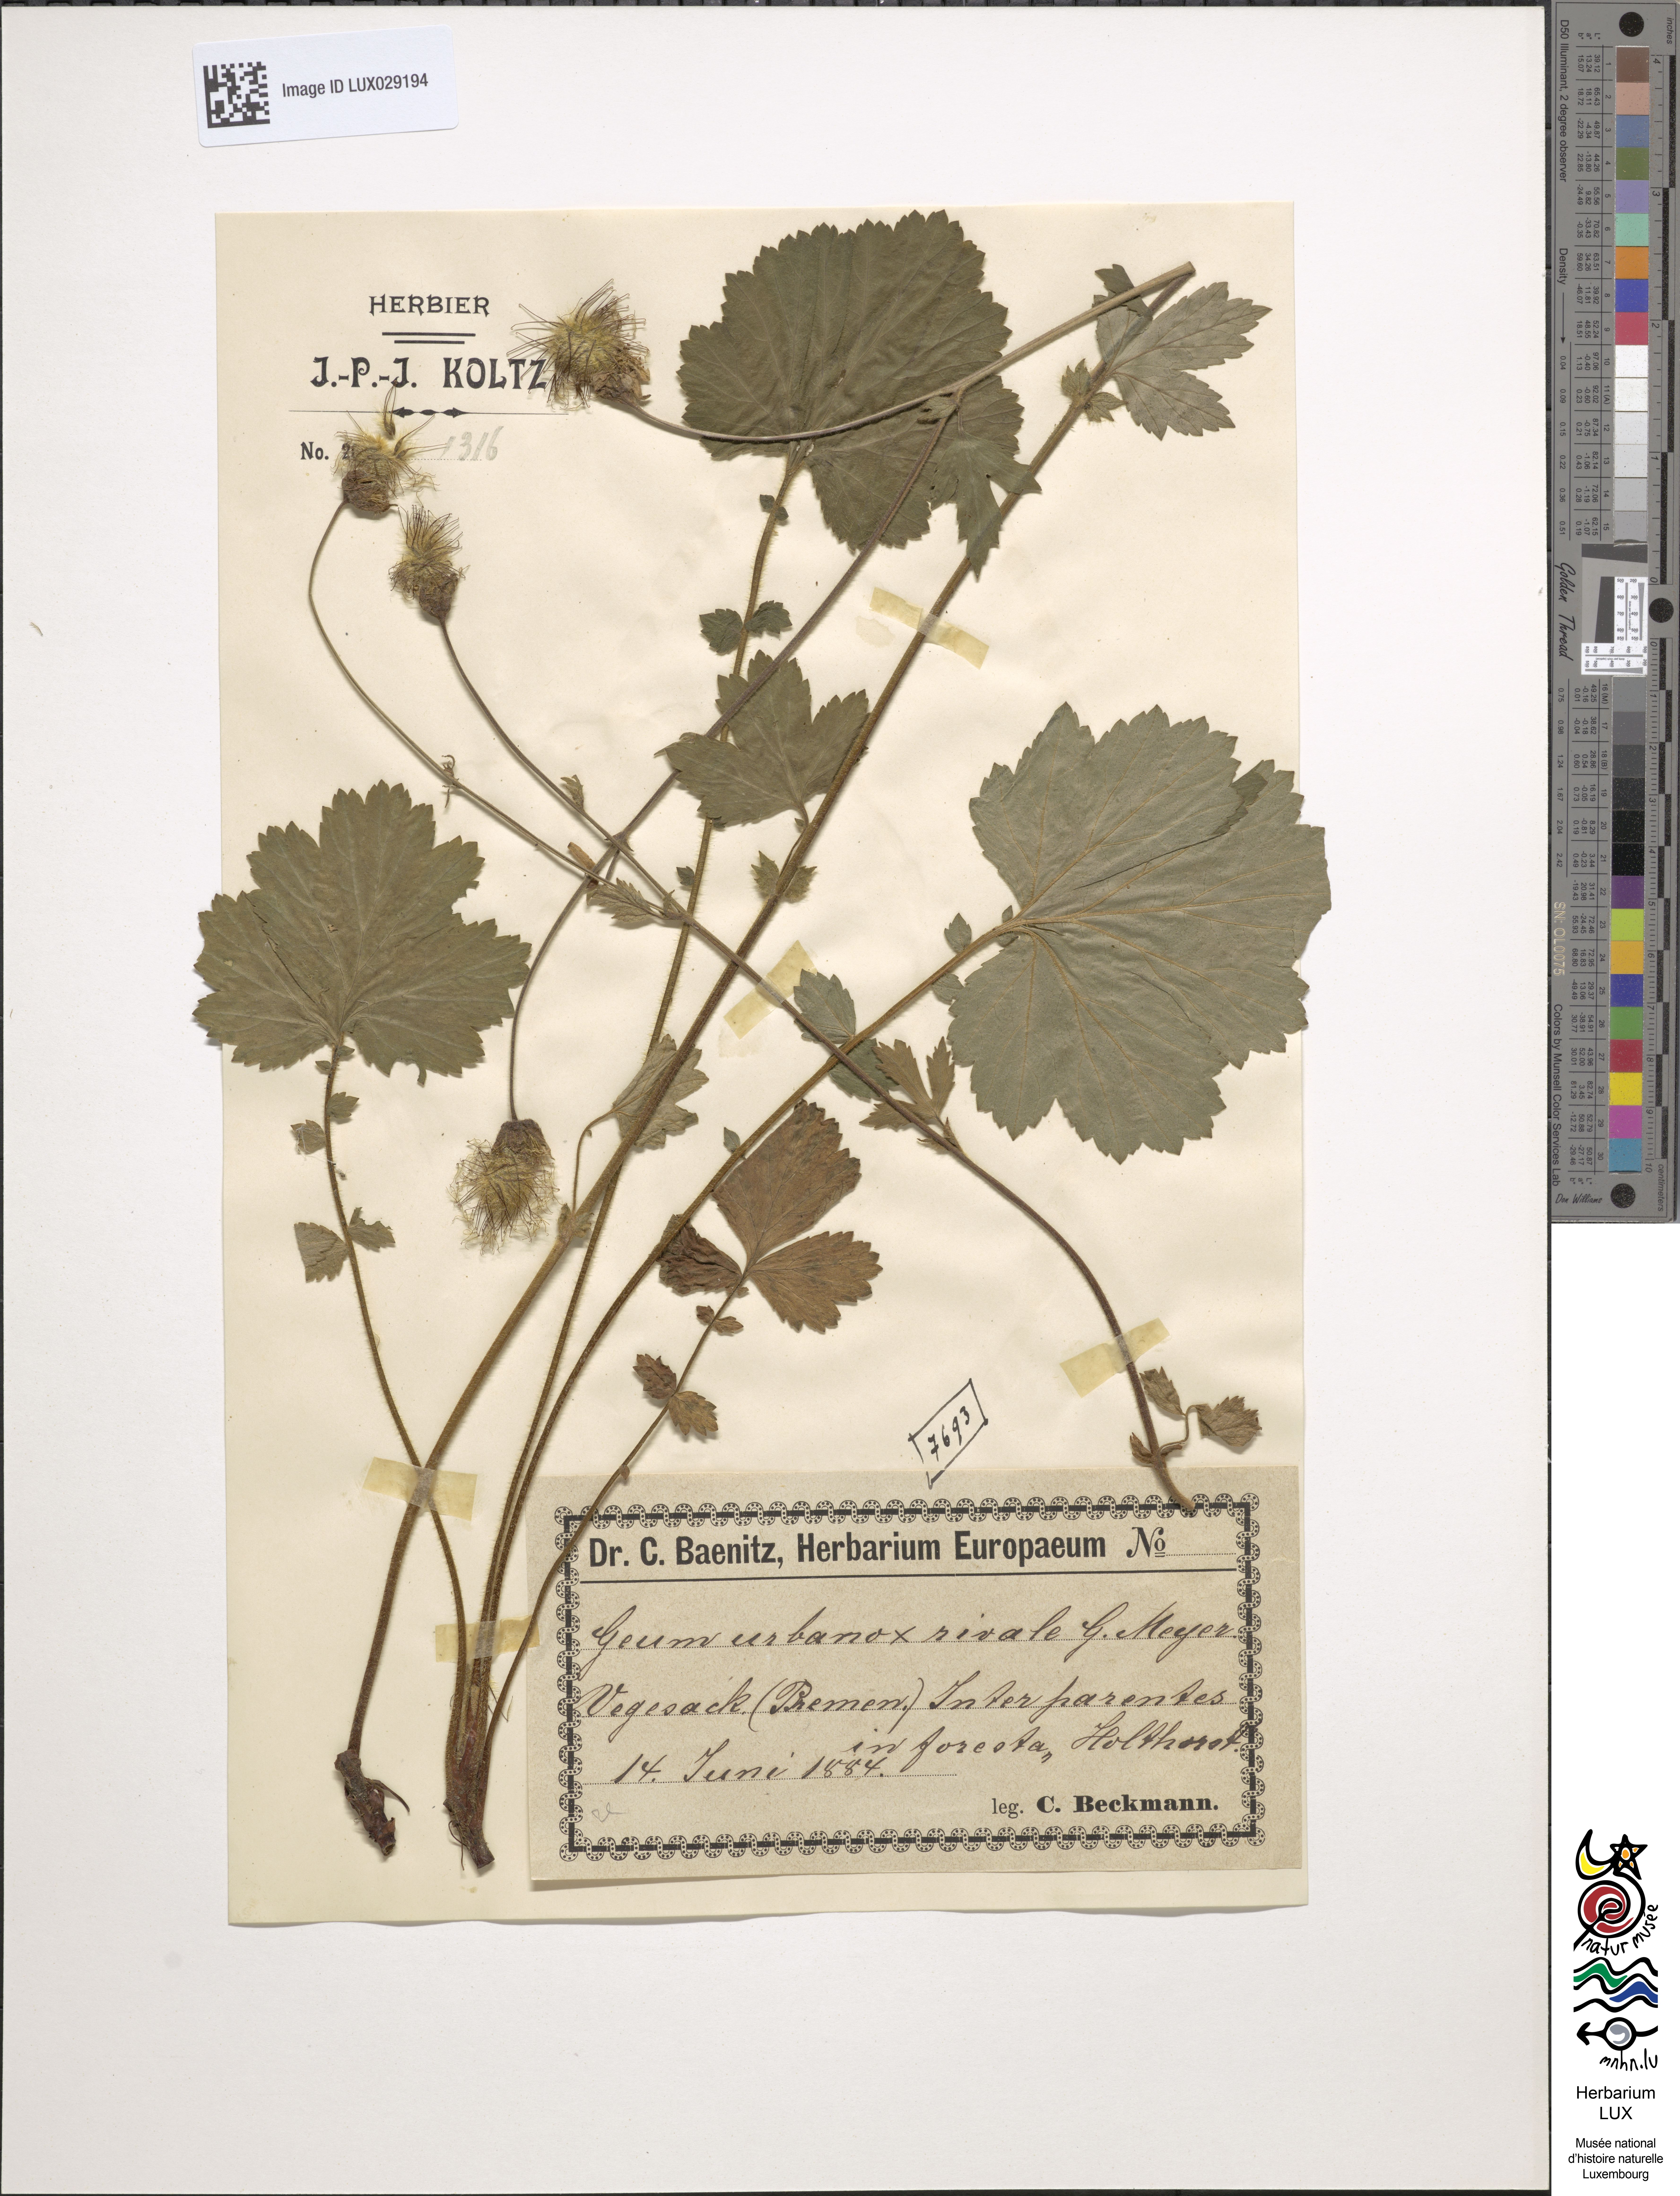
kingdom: Plantae
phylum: Tracheophyta
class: Magnoliopsida
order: Rosales
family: Rosaceae
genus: Geum
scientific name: Geum intermedium
